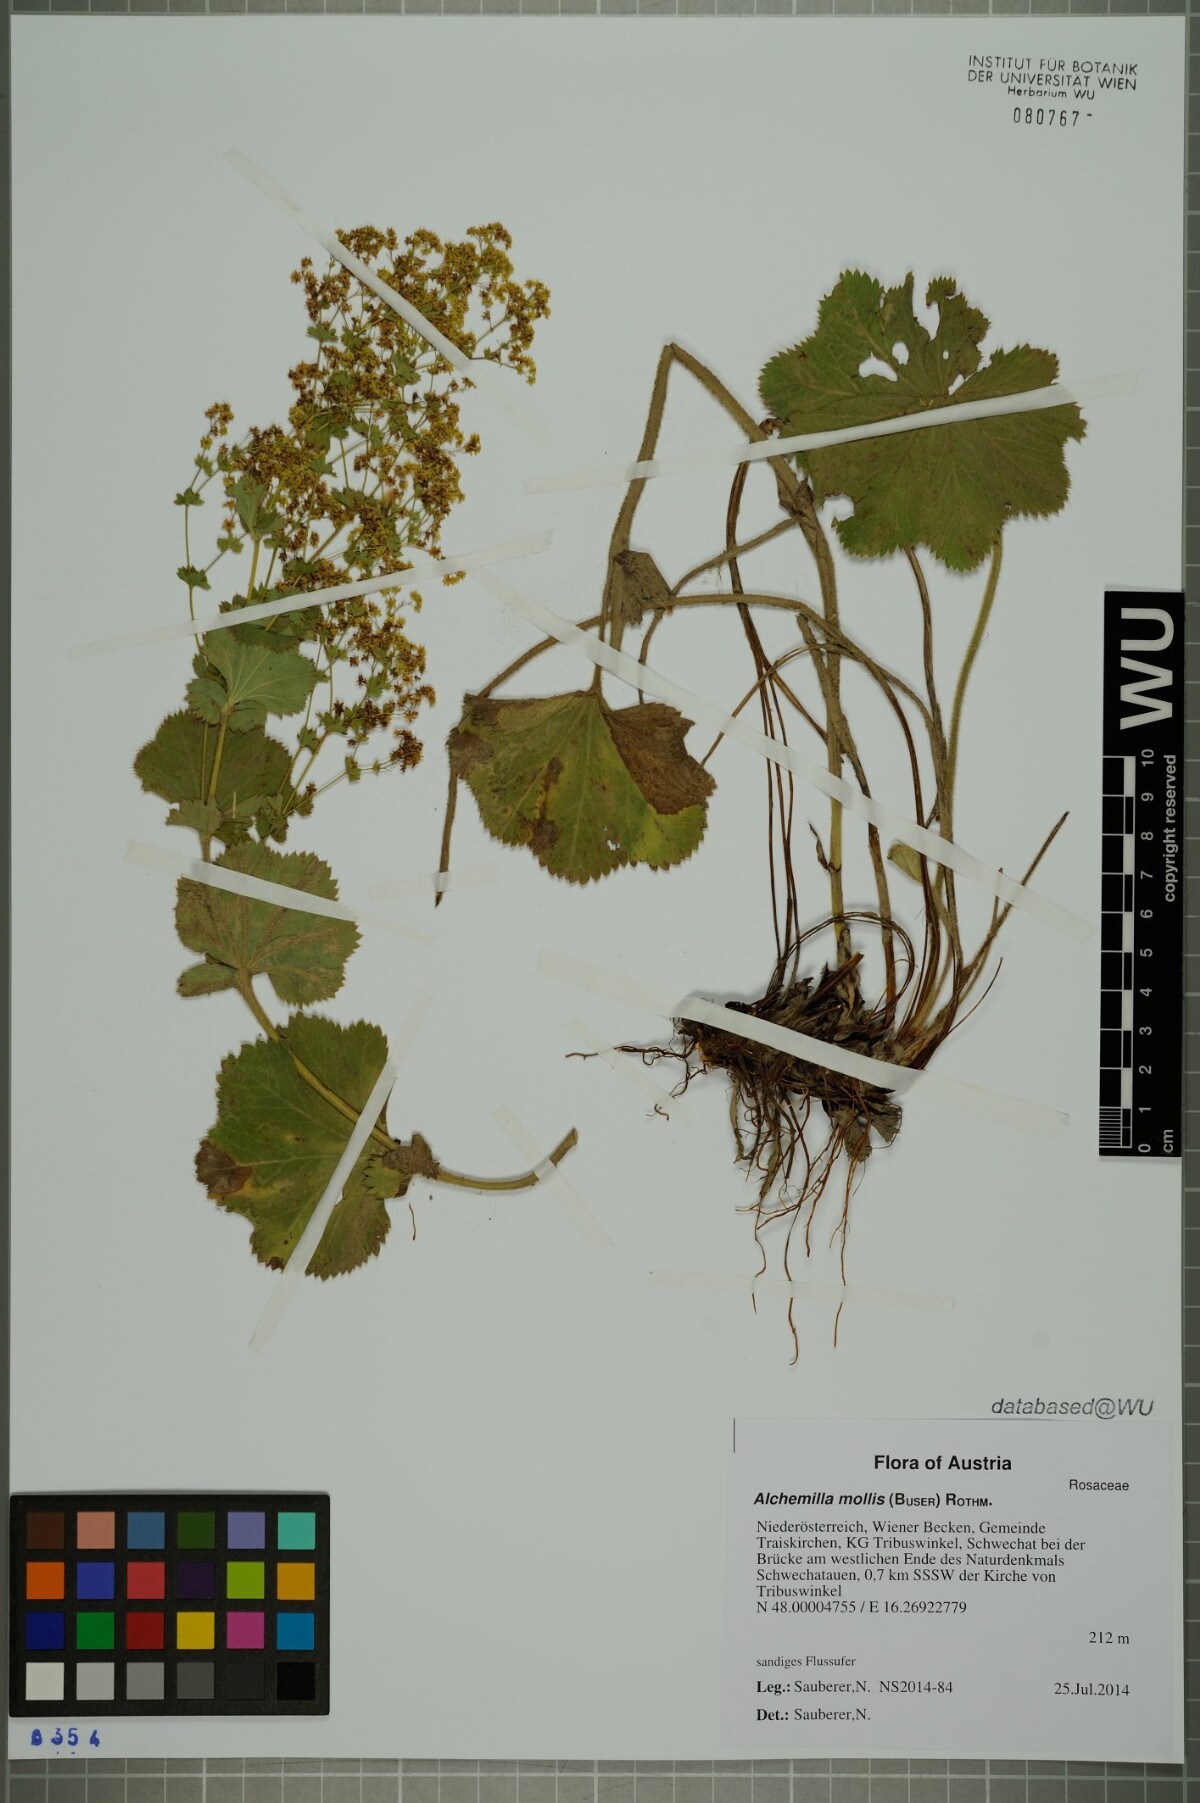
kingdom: Plantae
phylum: Tracheophyta
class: Magnoliopsida
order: Rosales
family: Rosaceae
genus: Alchemilla
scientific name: Alchemilla mollis
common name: Lady's-mantle
